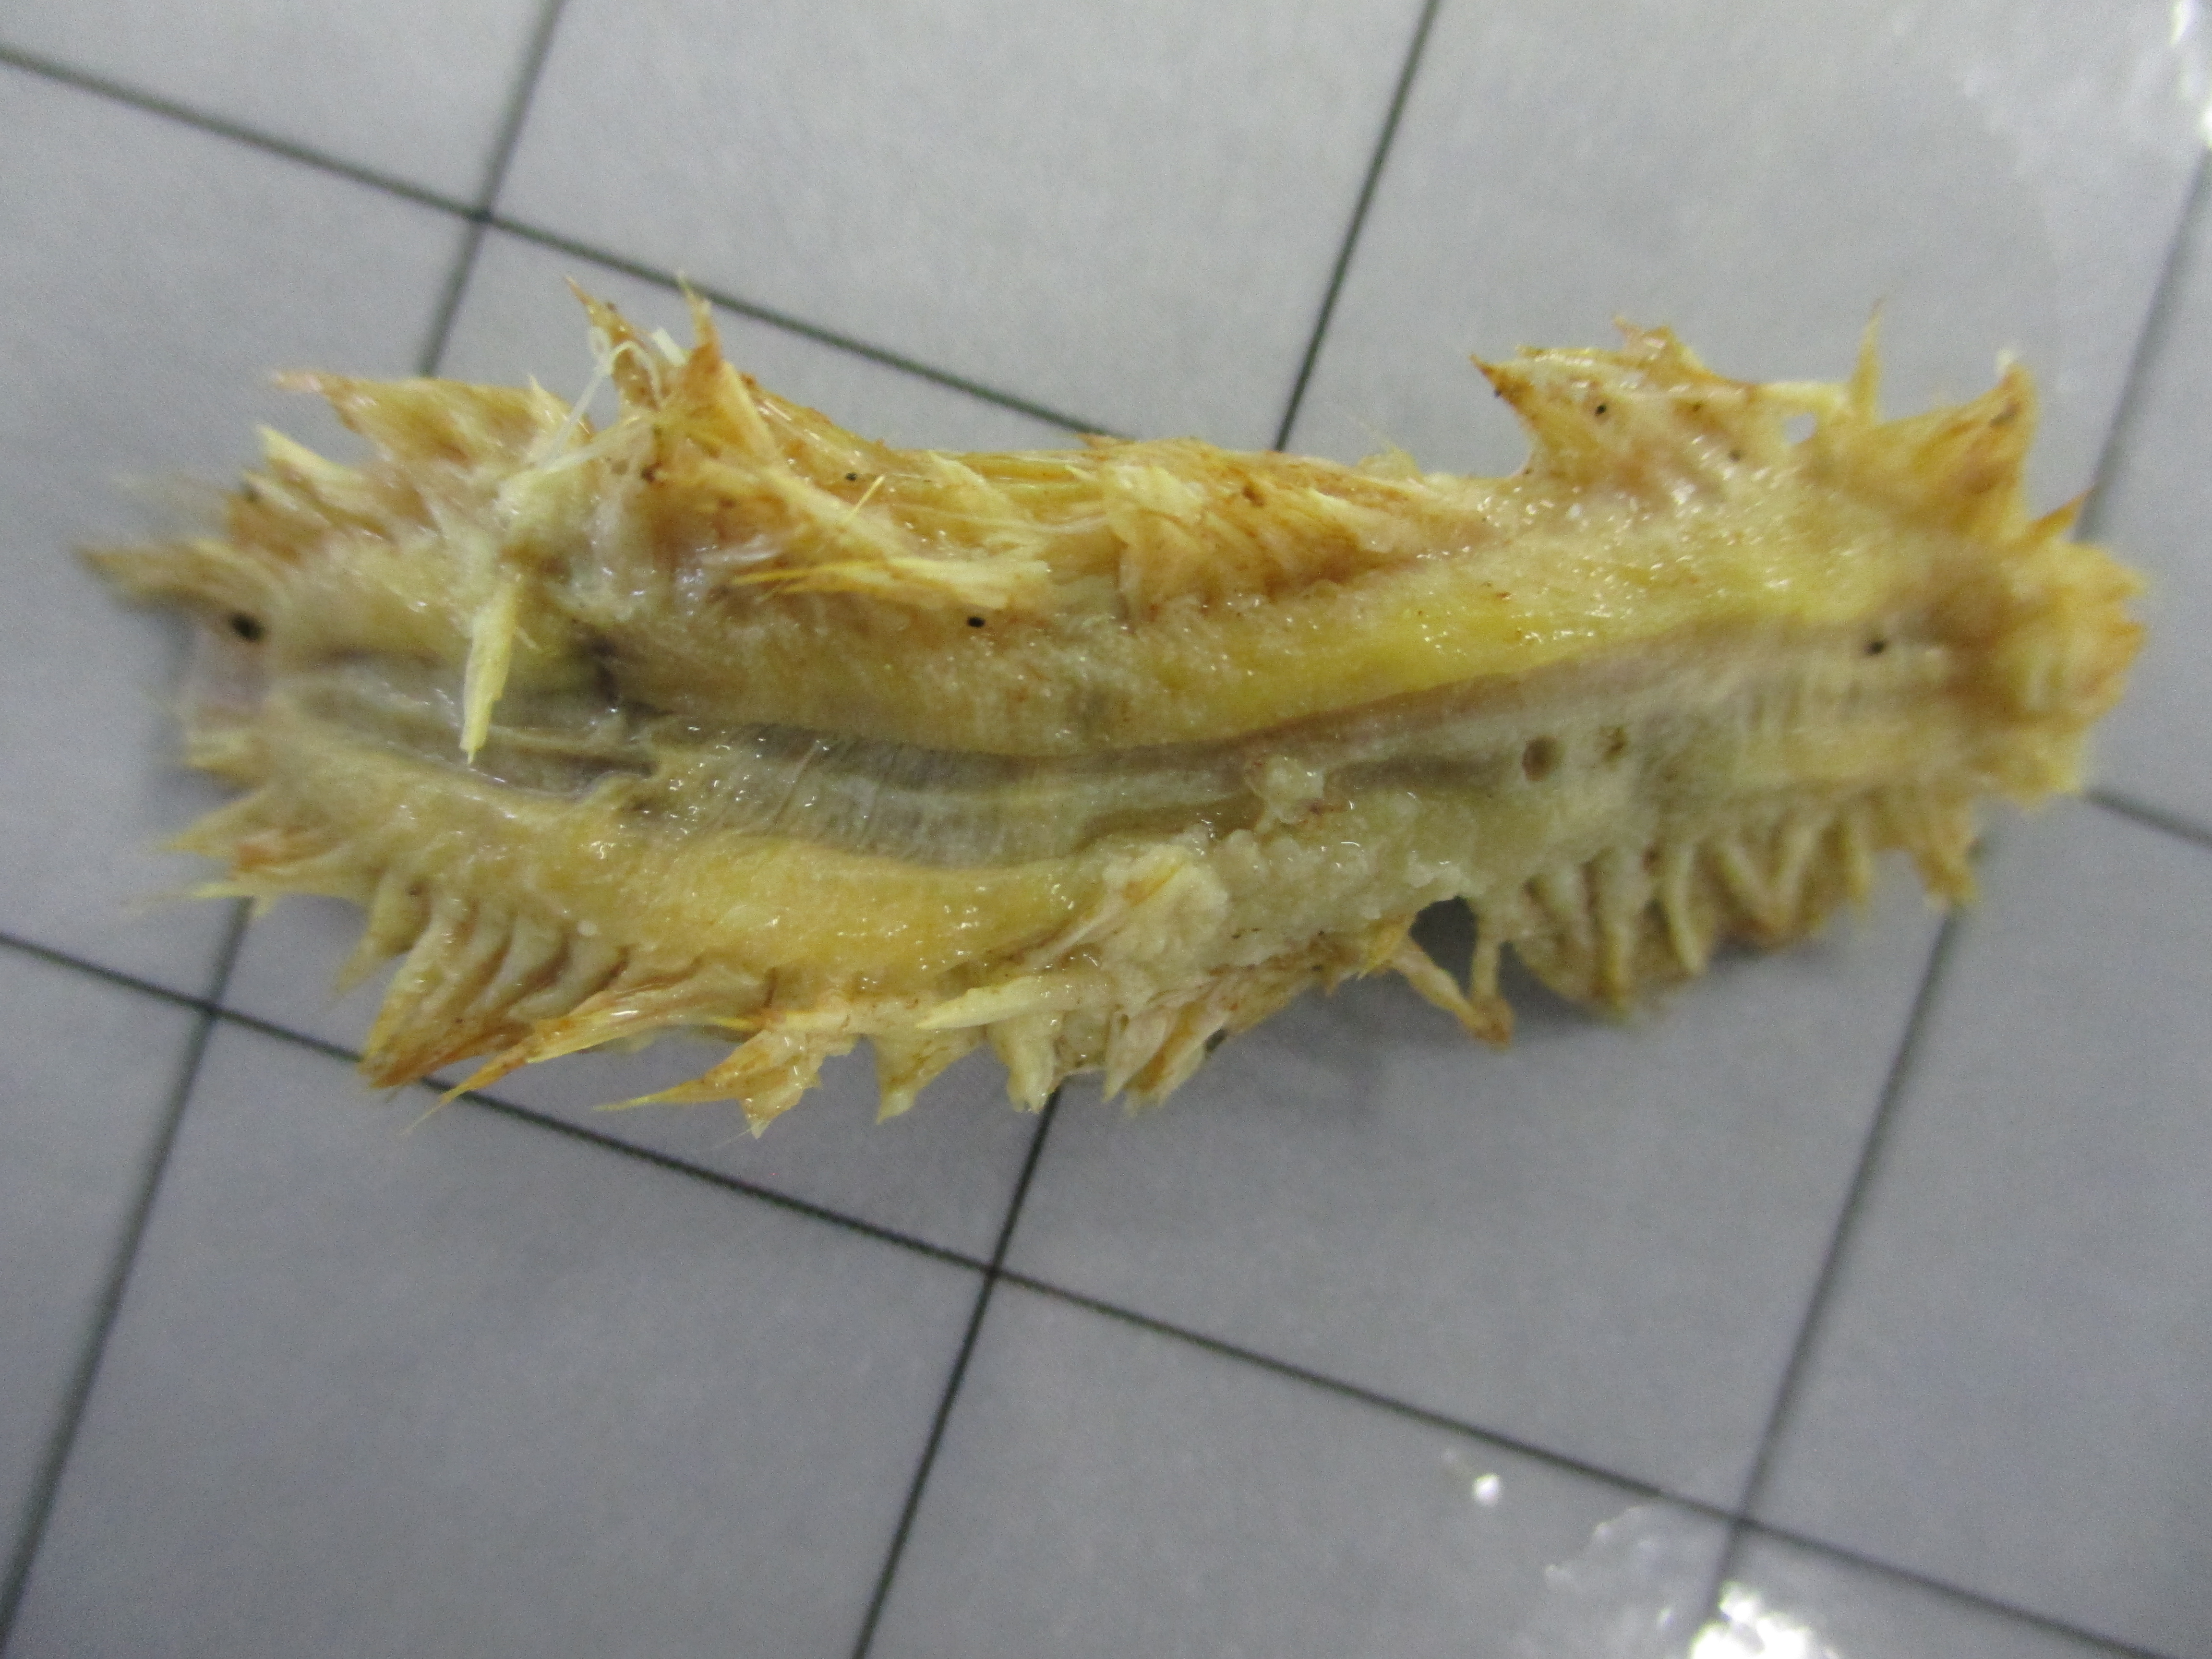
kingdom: Animalia
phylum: Annelida
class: Polychaeta
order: Phyllodocida
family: Aphroditidae
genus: Laetmonice
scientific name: Laetmonice benthaliana
